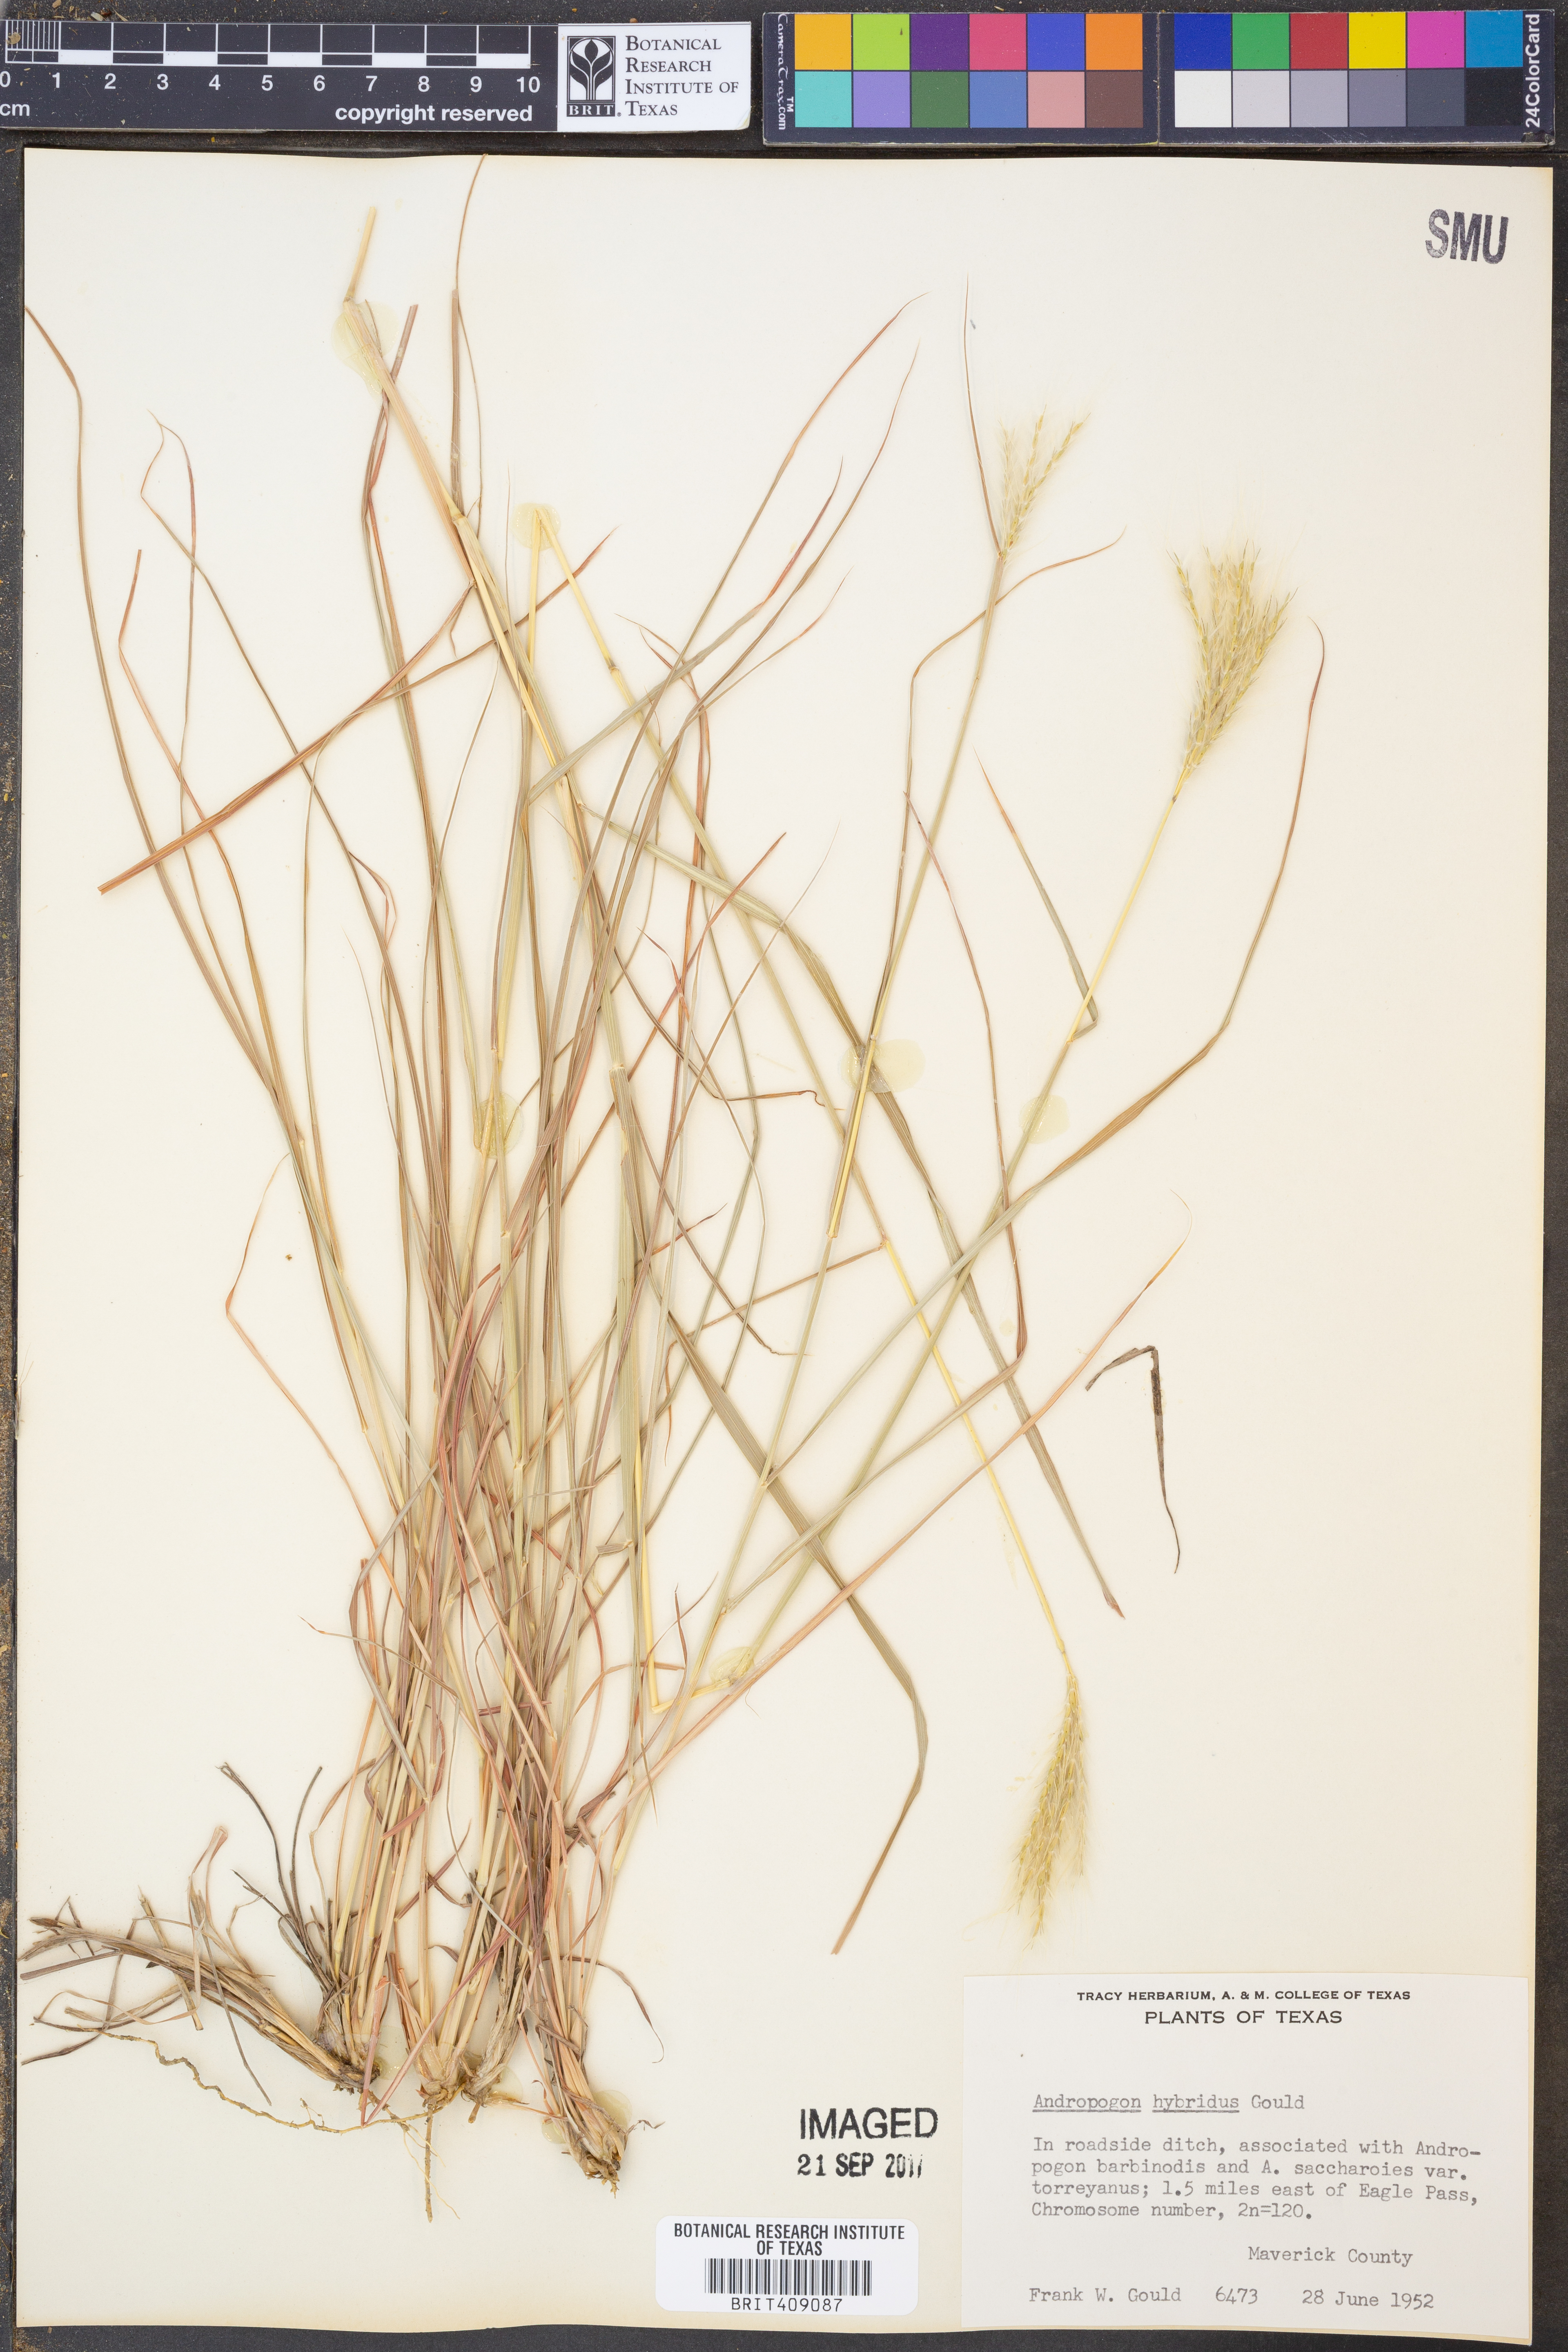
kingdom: Plantae
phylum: Tracheophyta
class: Liliopsida
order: Poales
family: Poaceae
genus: Bothriochloa
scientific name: Bothriochloa hybrida
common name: Hybrid bluestem
